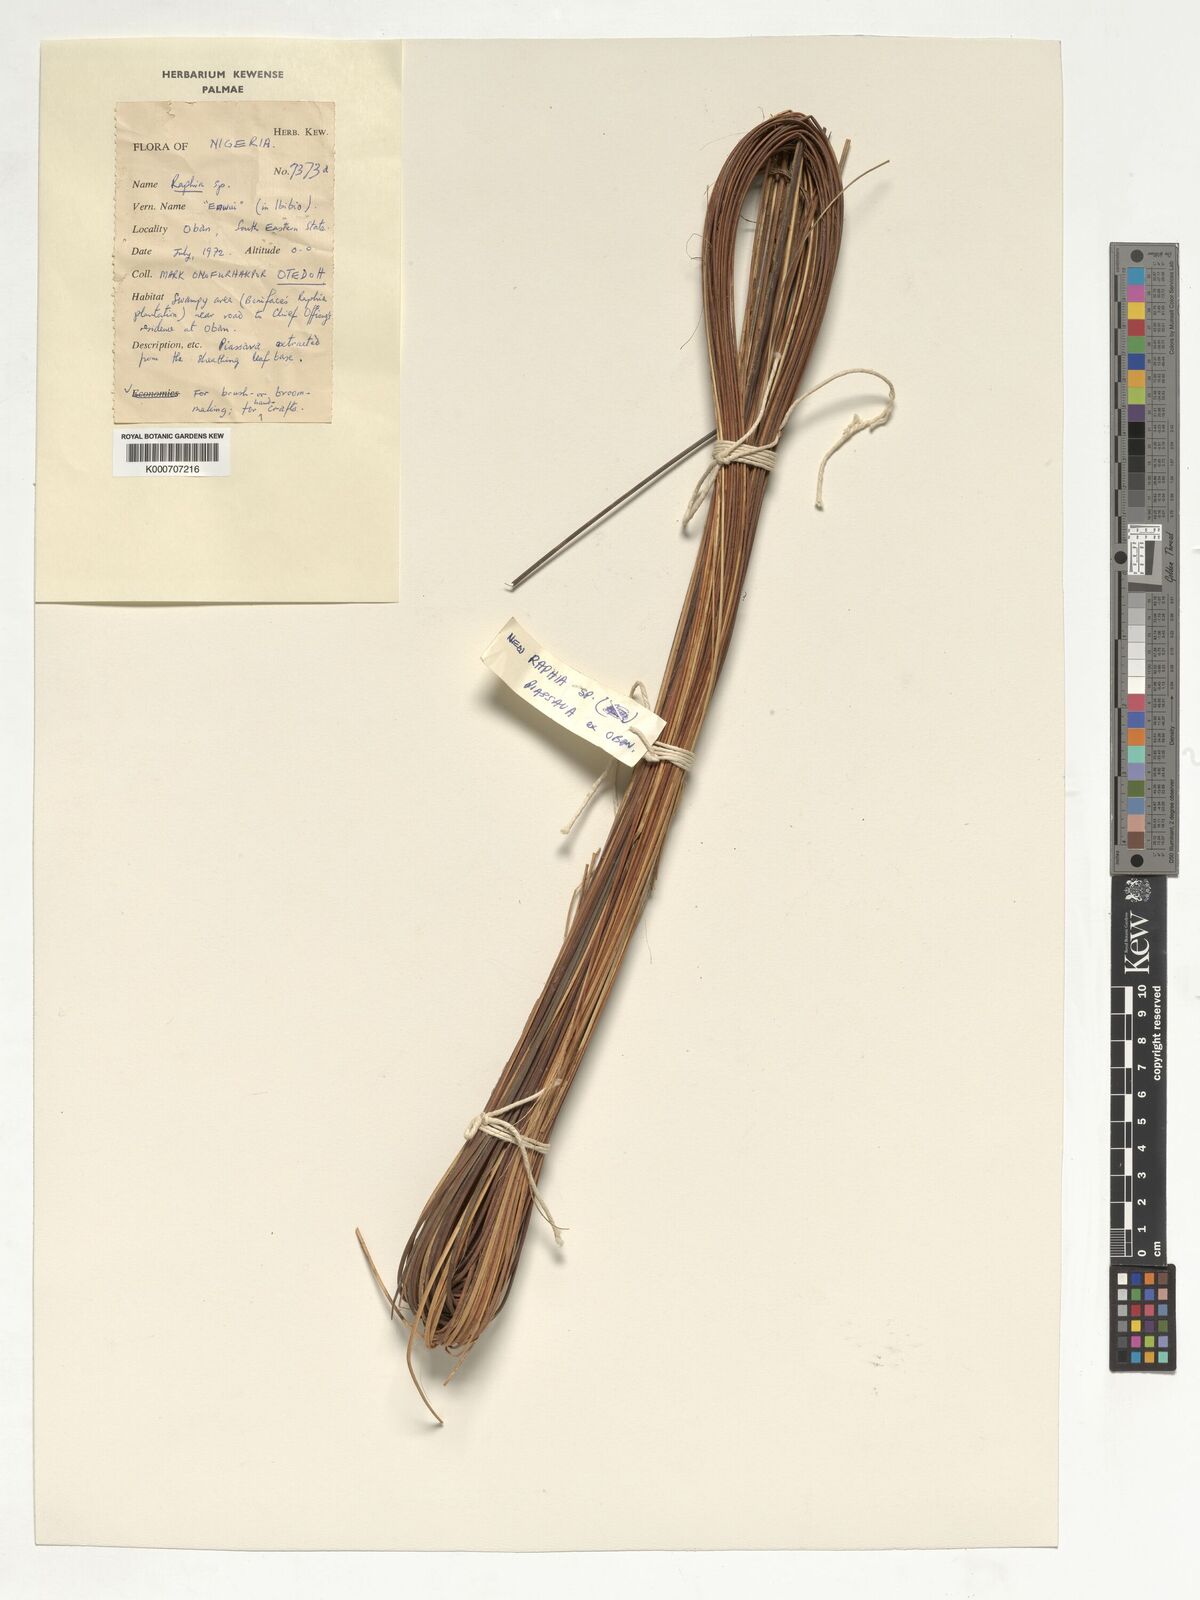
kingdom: Plantae
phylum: Tracheophyta
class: Liliopsida
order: Arecales
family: Arecaceae
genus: Raphia
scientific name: Raphia
